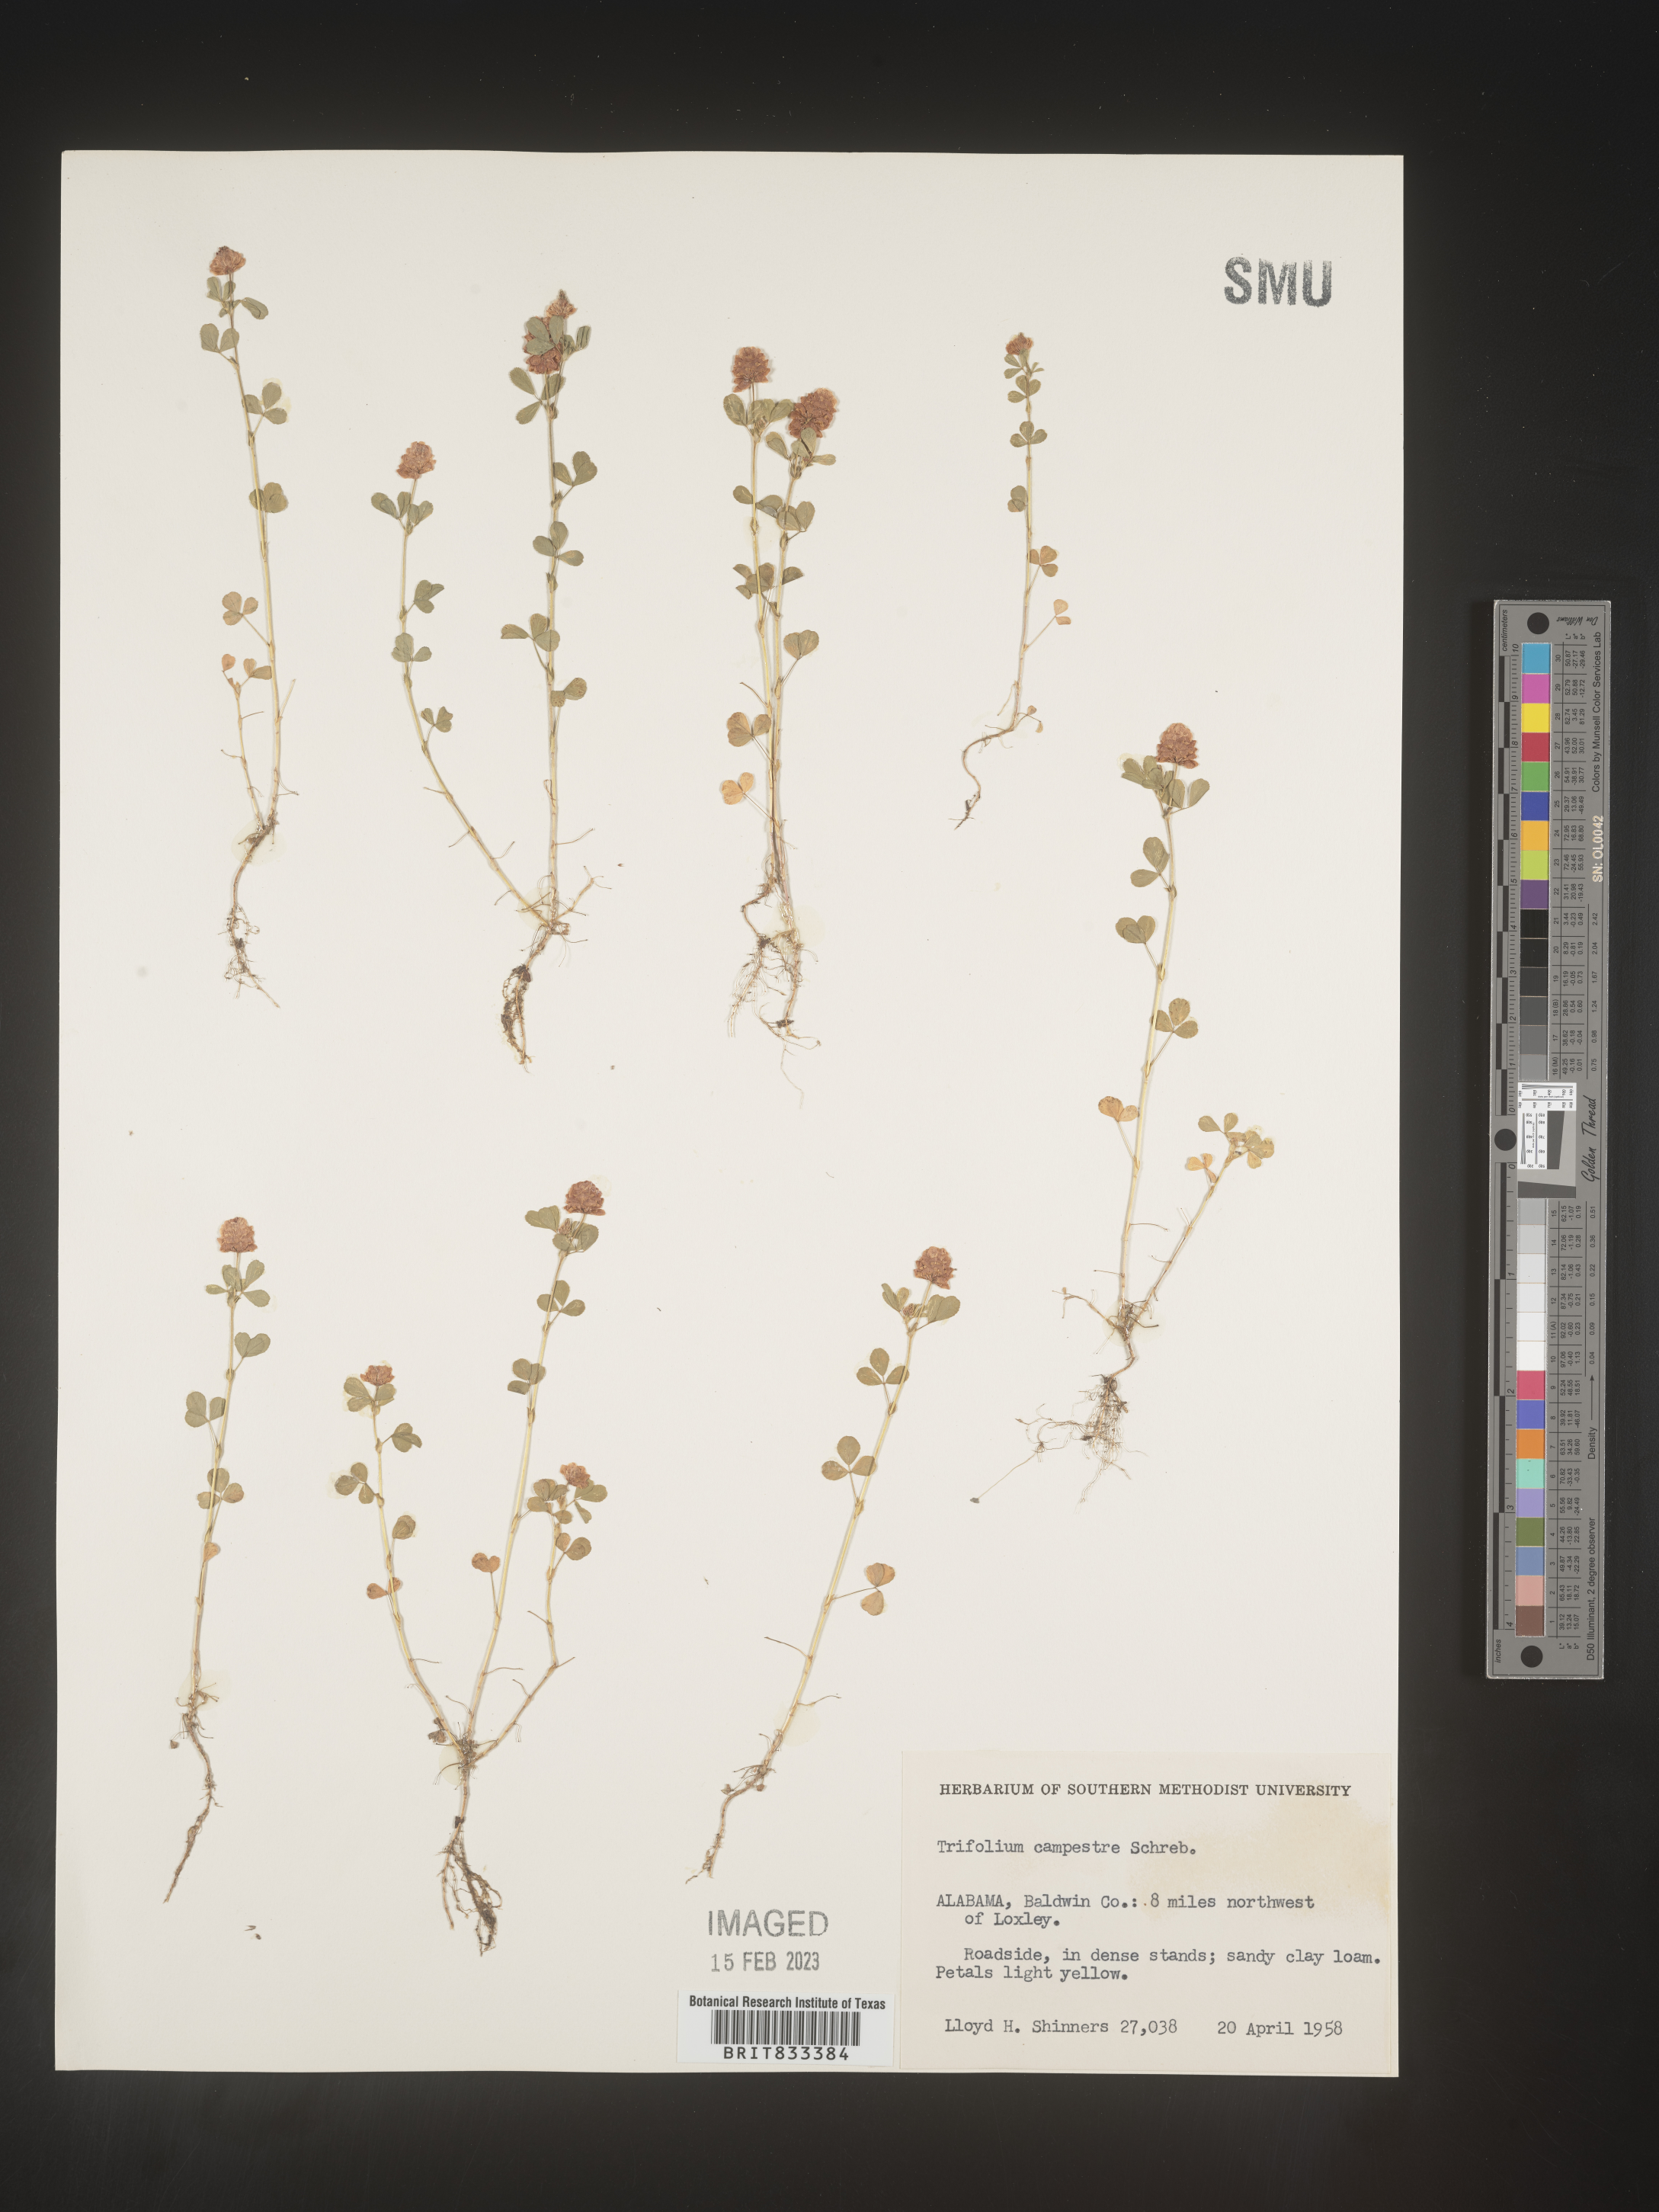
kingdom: Plantae
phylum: Tracheophyta
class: Magnoliopsida
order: Fabales
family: Fabaceae
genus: Trifolium
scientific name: Trifolium campestre
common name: Field clover
